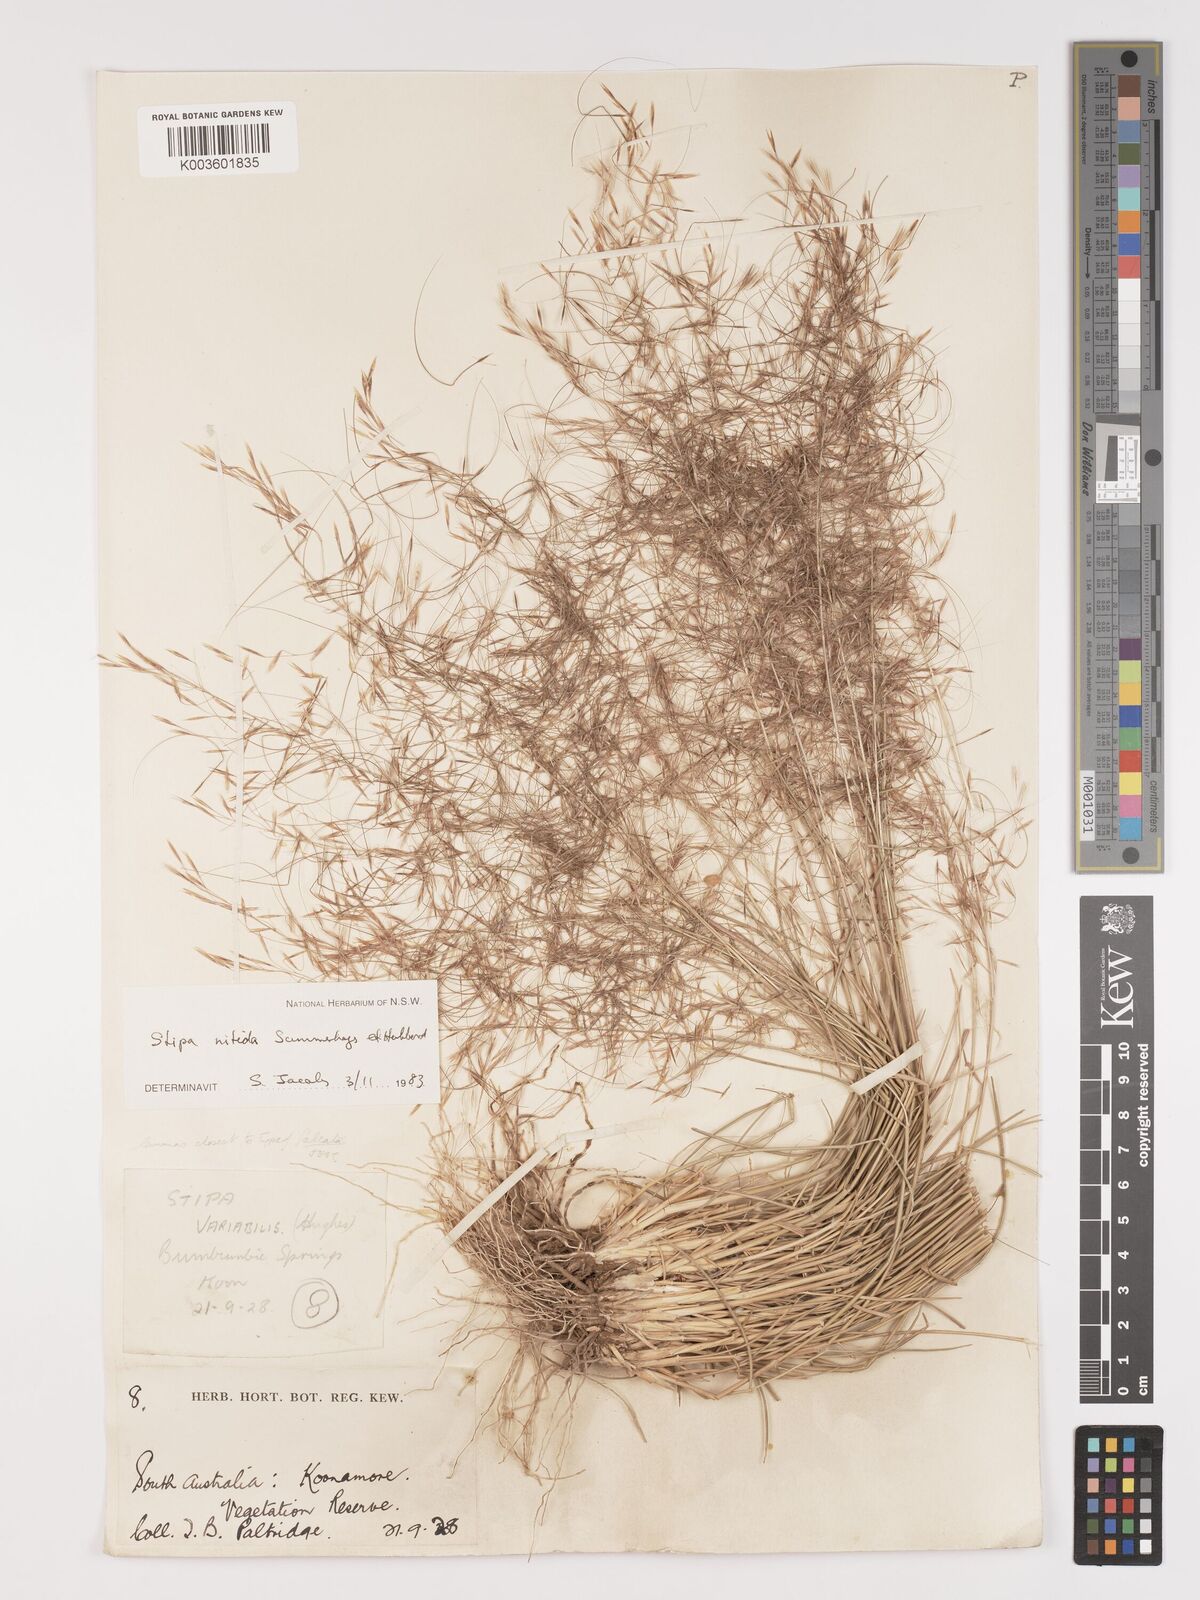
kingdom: Plantae
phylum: Tracheophyta
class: Liliopsida
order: Poales
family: Poaceae
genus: Austrostipa
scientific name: Austrostipa nitida
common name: Balcarra grass
